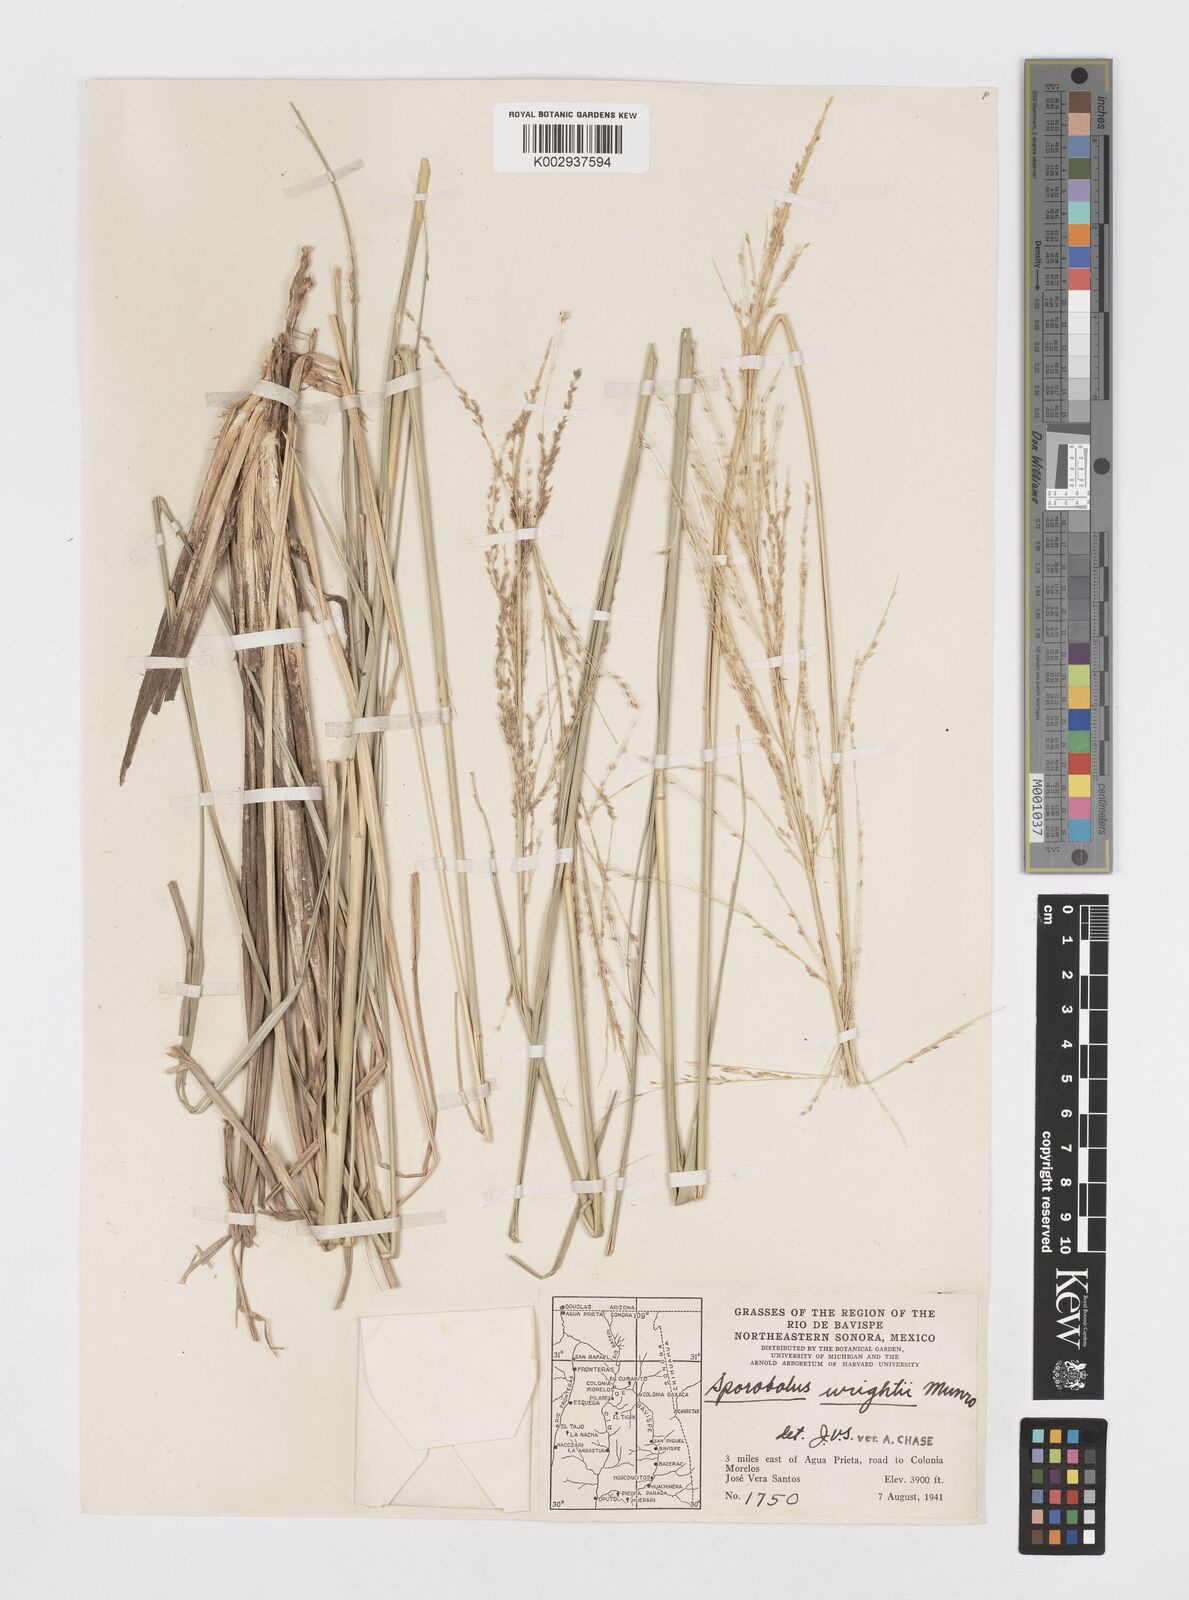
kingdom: Plantae
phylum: Tracheophyta
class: Liliopsida
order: Poales
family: Poaceae
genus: Sporobolus
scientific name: Sporobolus wrightii
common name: Big alkali sacaton
